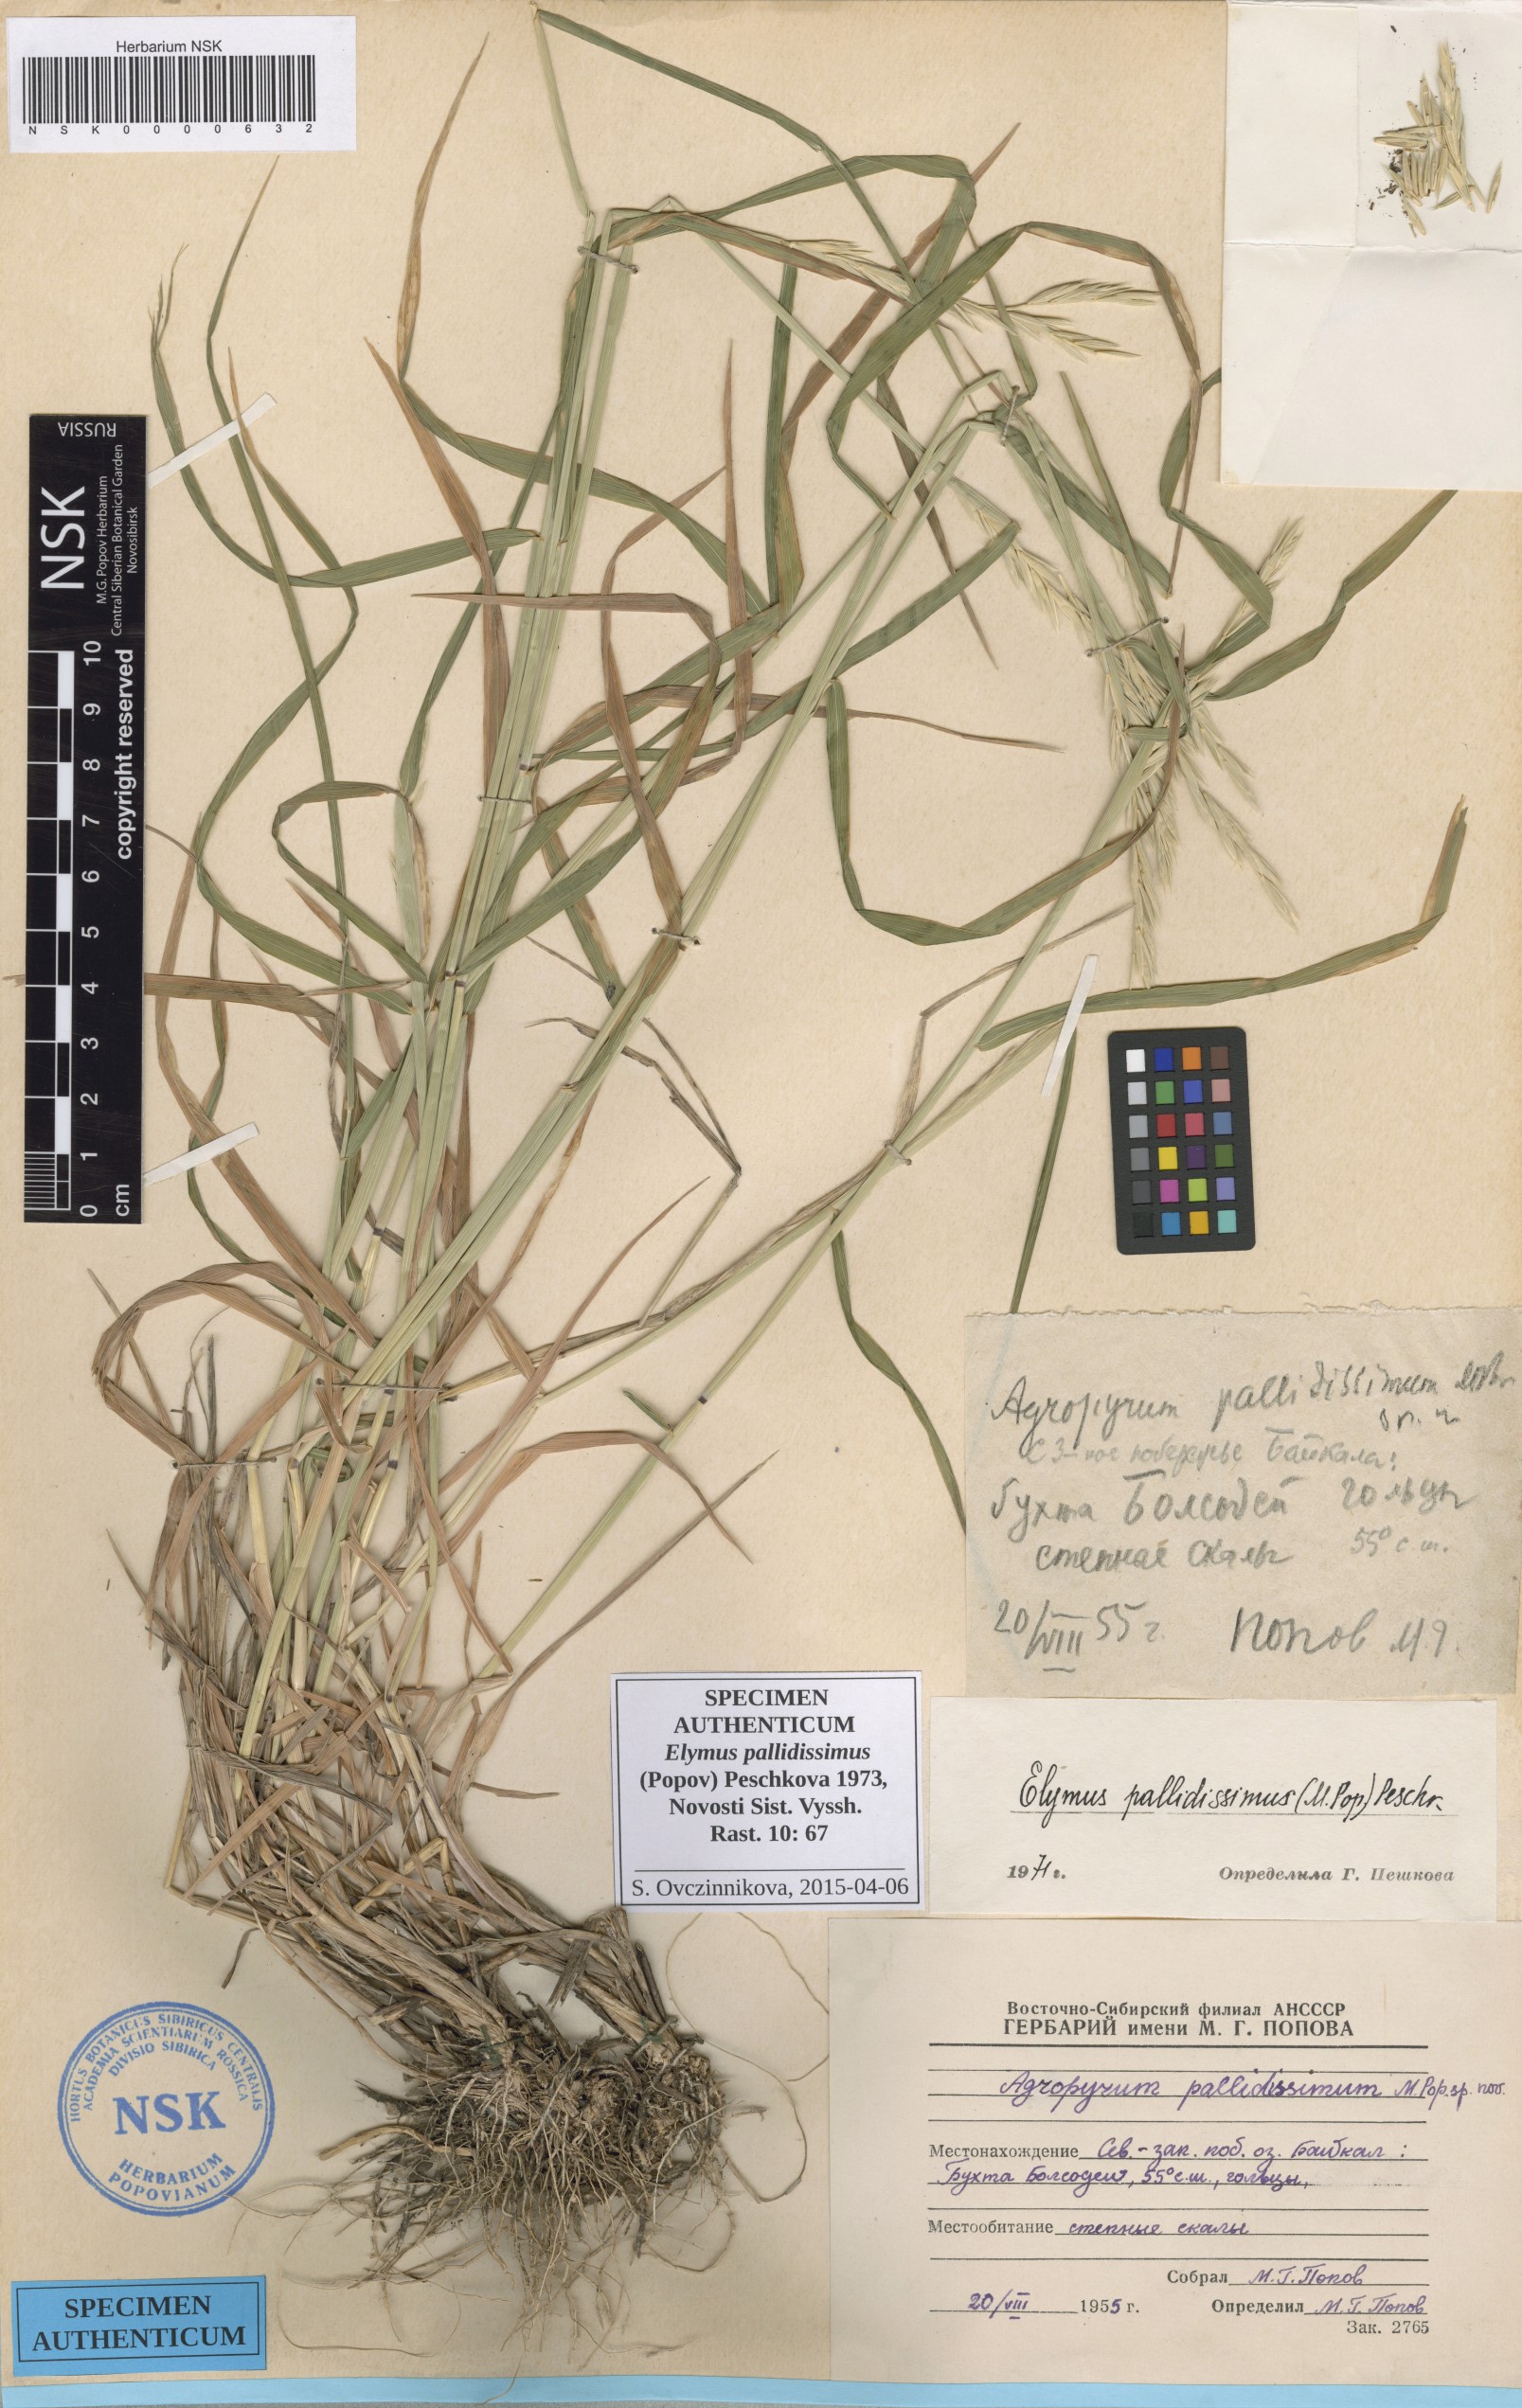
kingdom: Plantae
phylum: Tracheophyta
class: Liliopsida
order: Poales
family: Poaceae
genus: Elymus
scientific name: Elymus mutabilis
